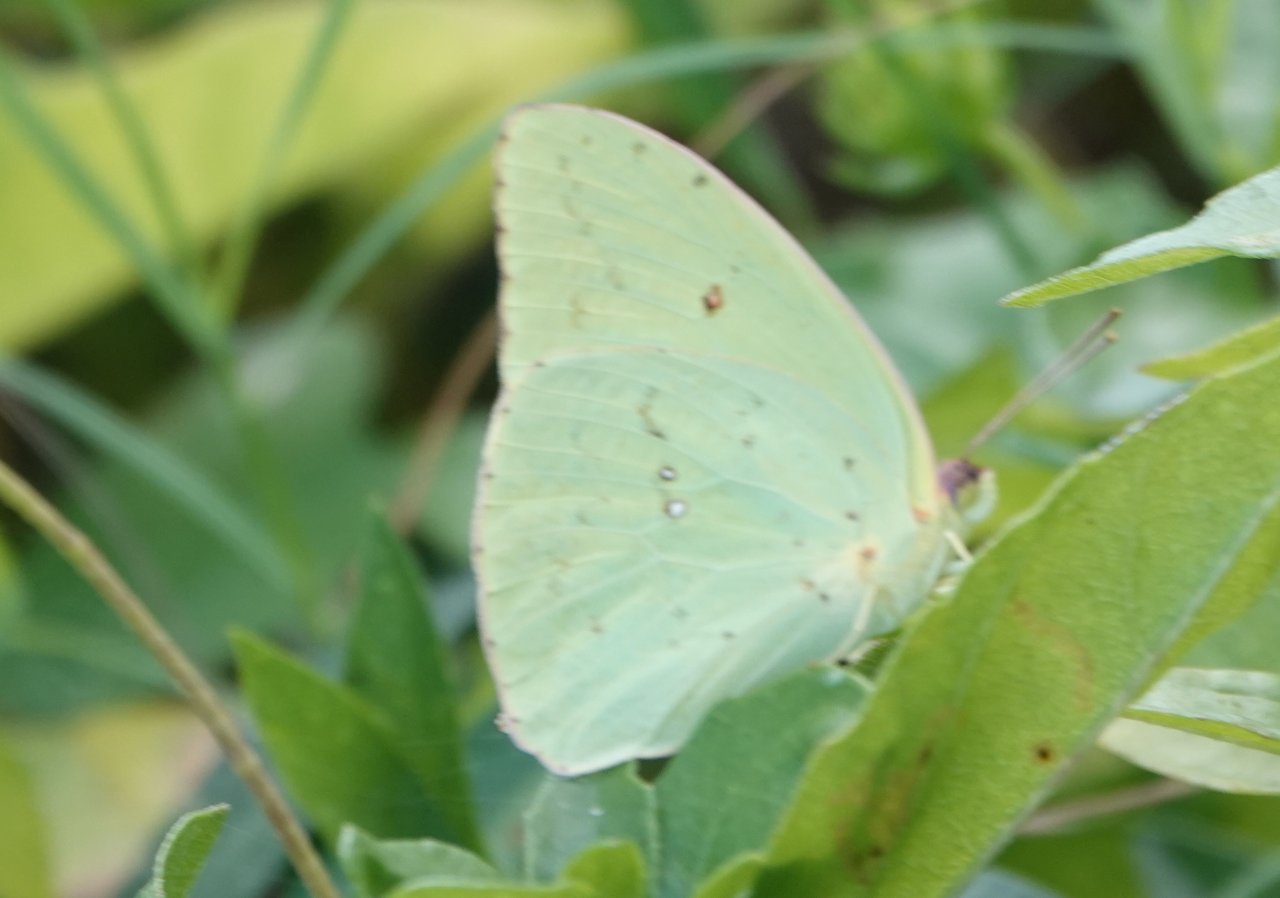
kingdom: Animalia
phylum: Arthropoda
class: Insecta
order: Lepidoptera
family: Pieridae
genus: Phoebis
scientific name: Phoebis sennae
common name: Cloudless Sulphur
